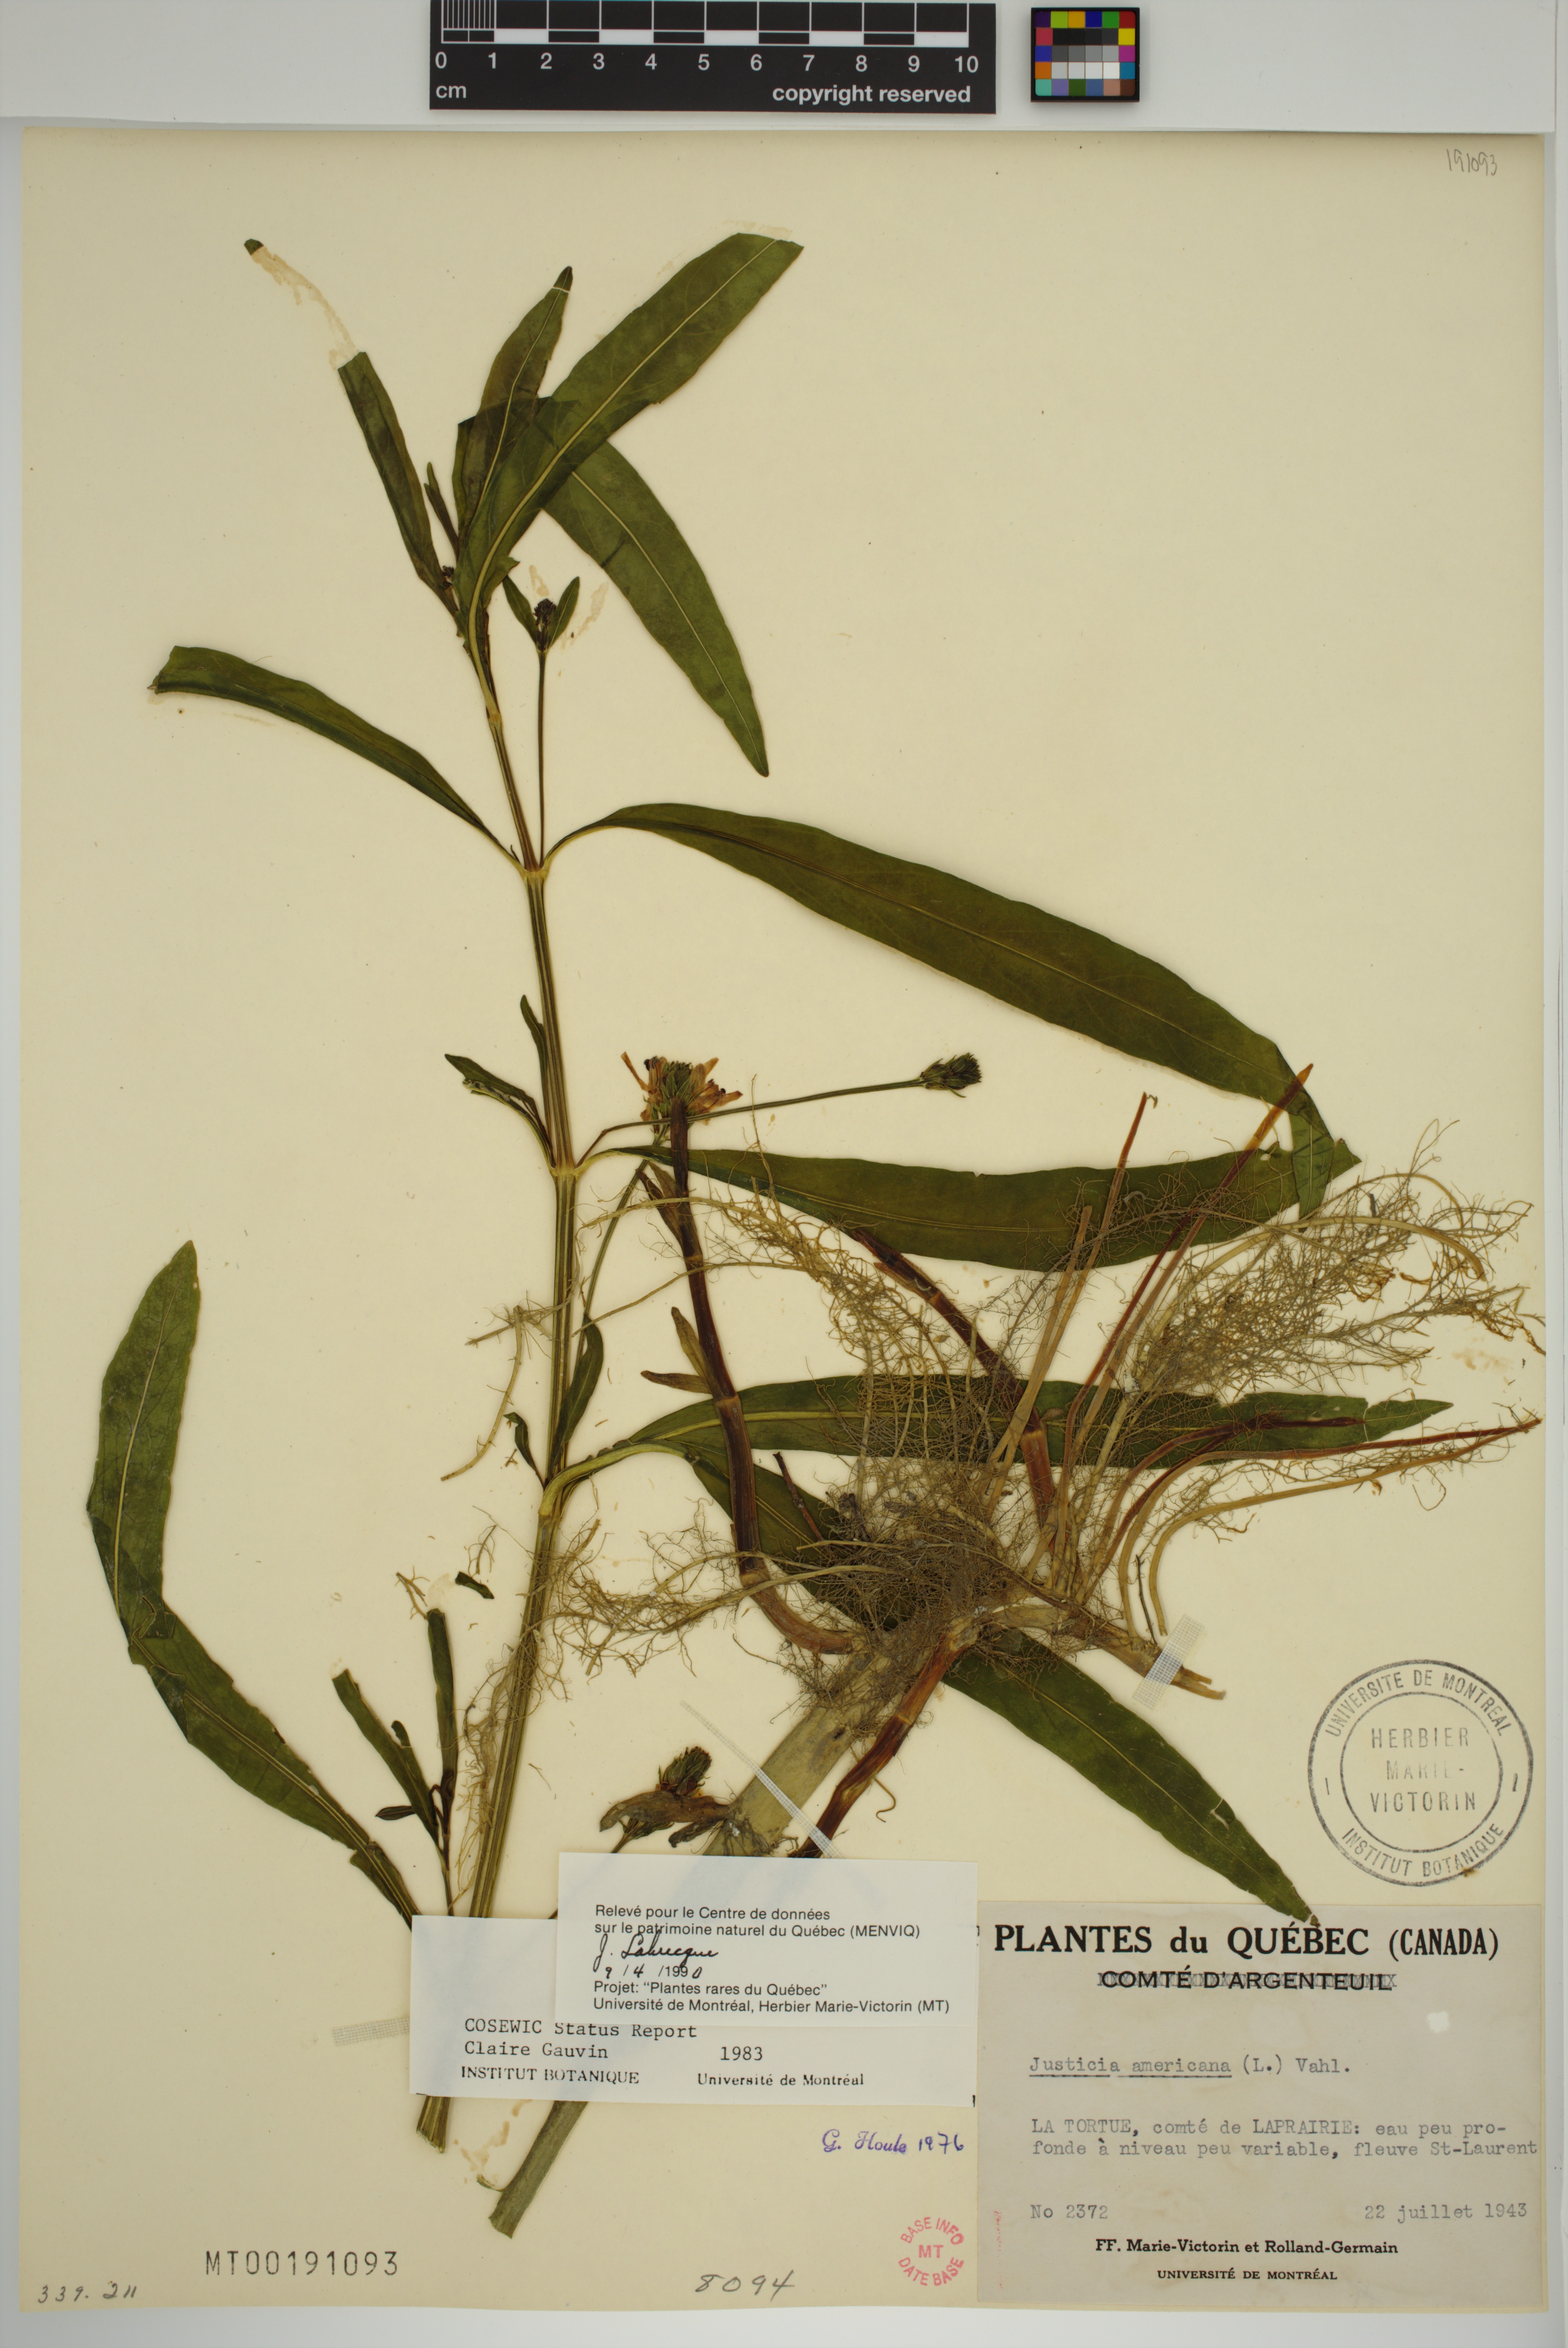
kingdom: Plantae
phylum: Tracheophyta
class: Magnoliopsida
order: Lamiales
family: Acanthaceae
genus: Dianthera
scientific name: Dianthera americana
